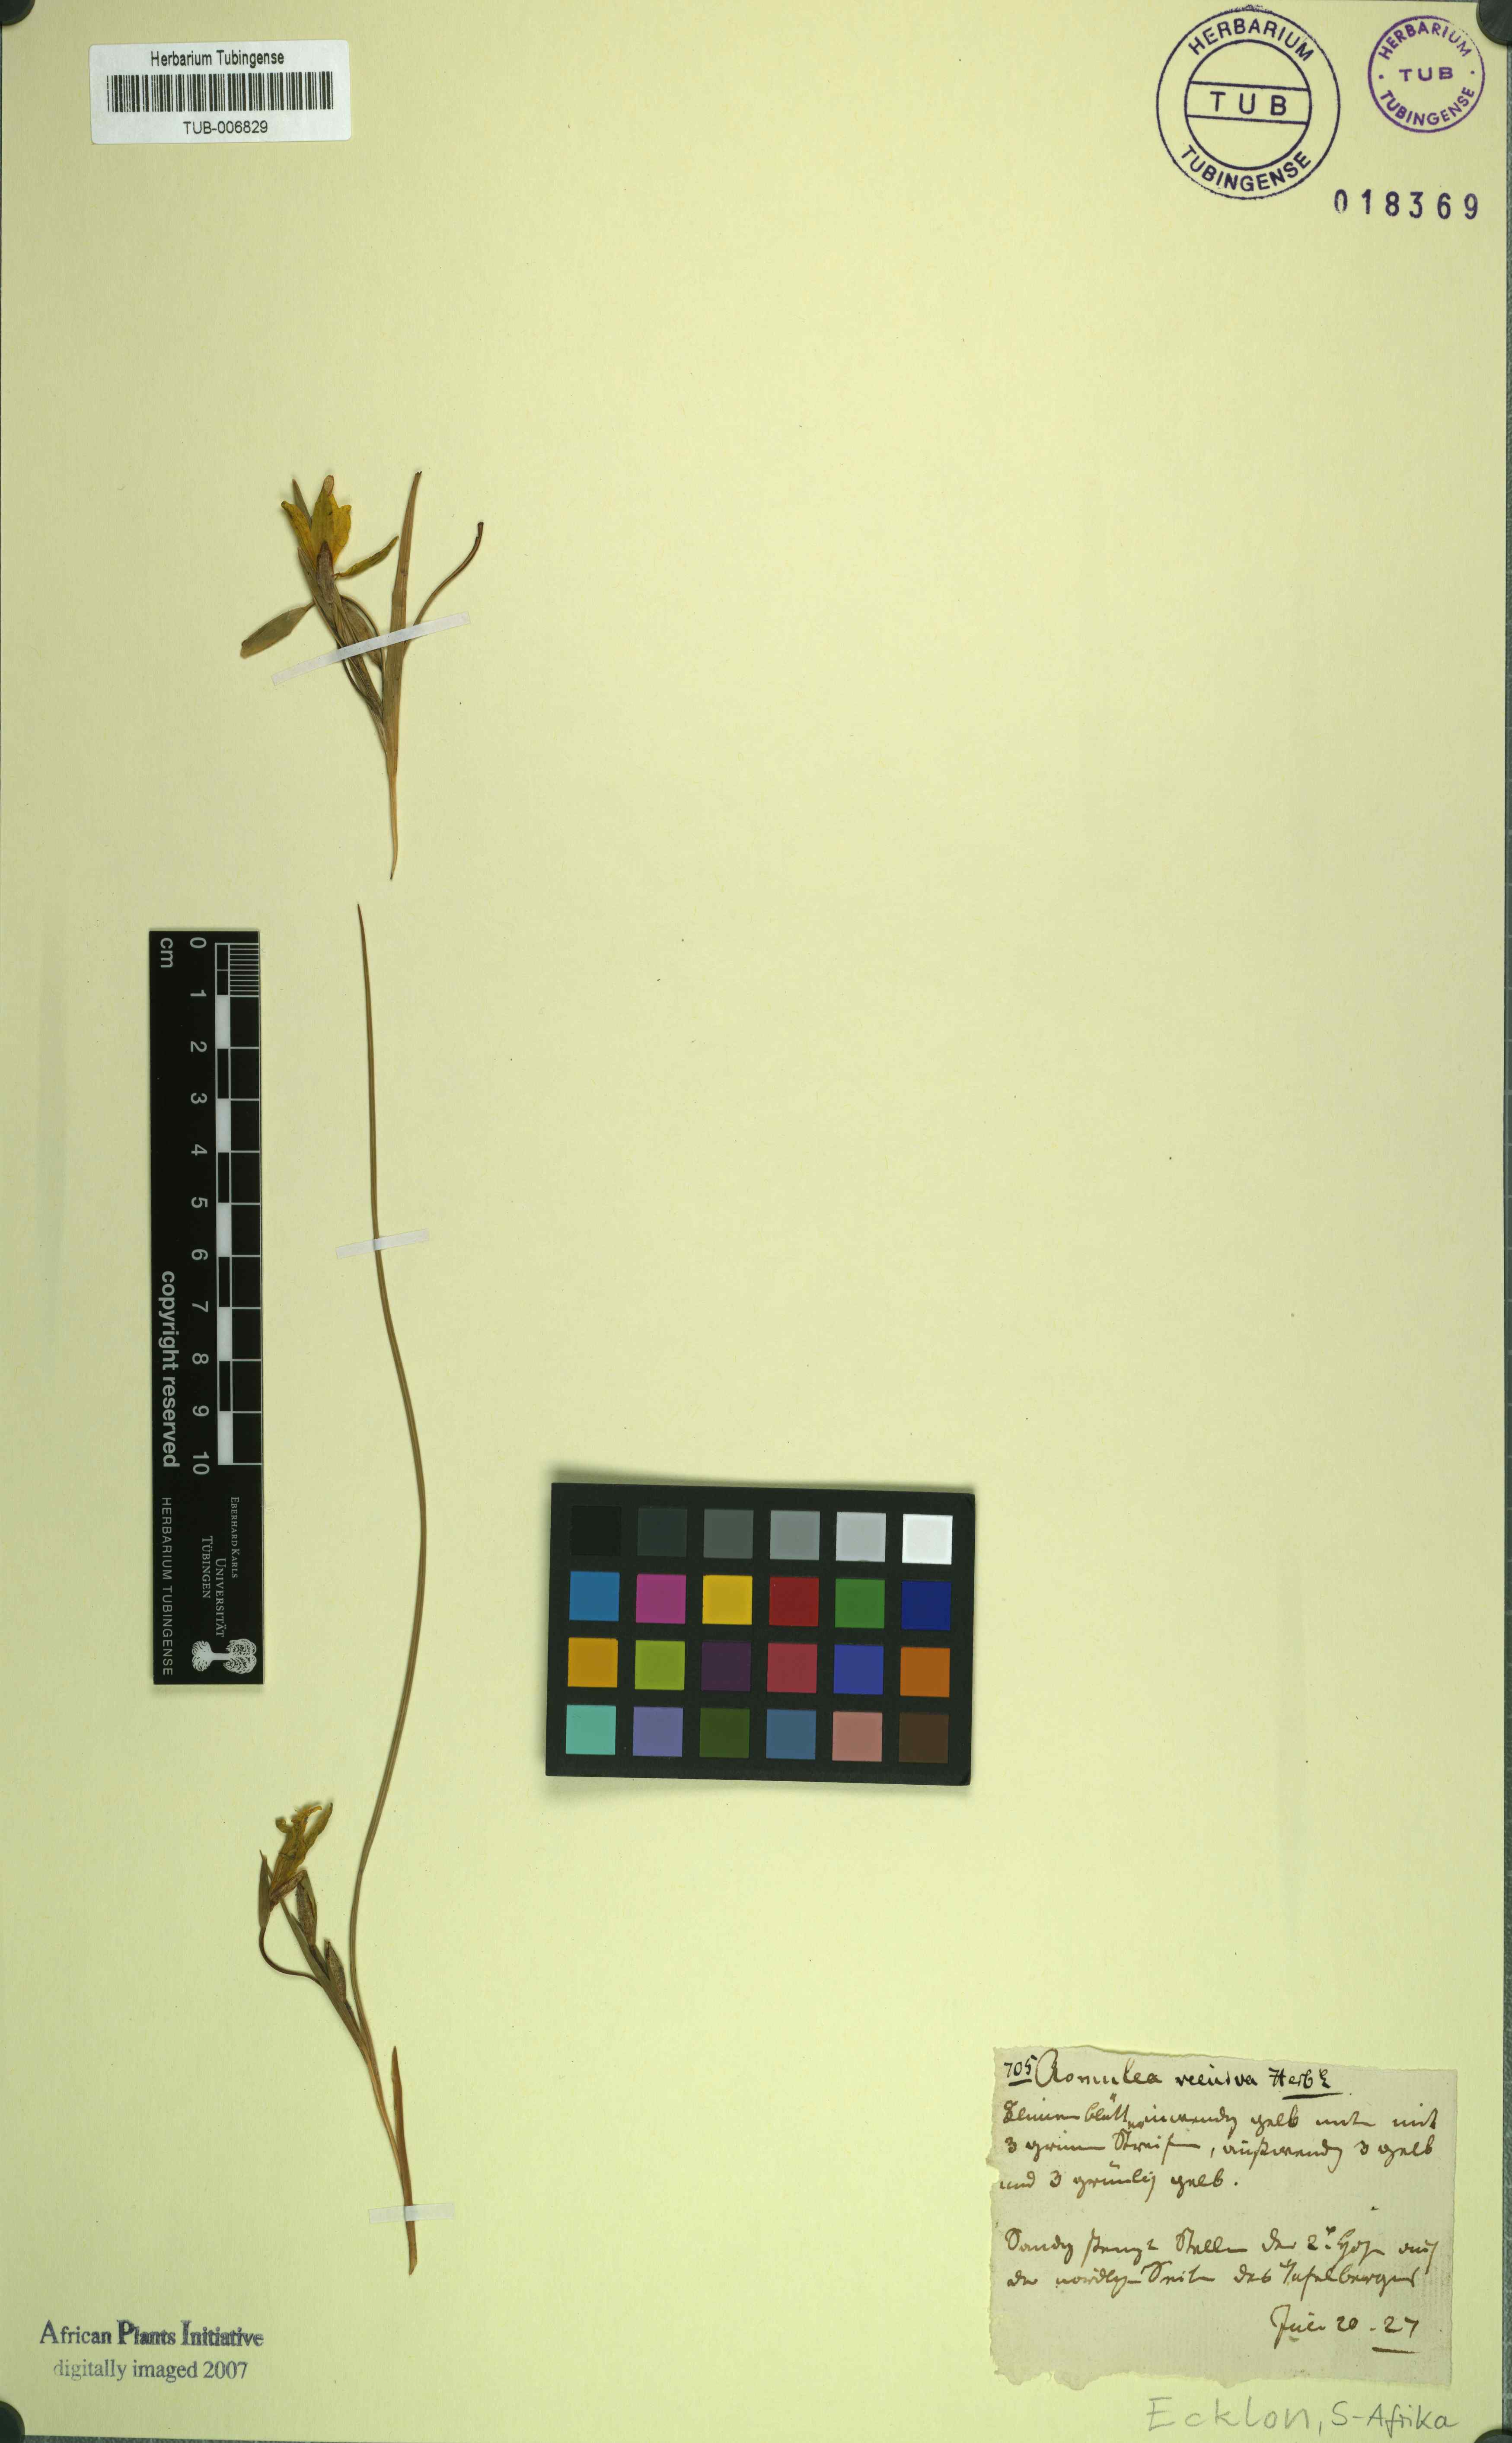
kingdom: Plantae
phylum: Tracheophyta
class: Liliopsida
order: Asparagales
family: Iridaceae
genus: Ixia
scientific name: Ixia bulbocodioides
